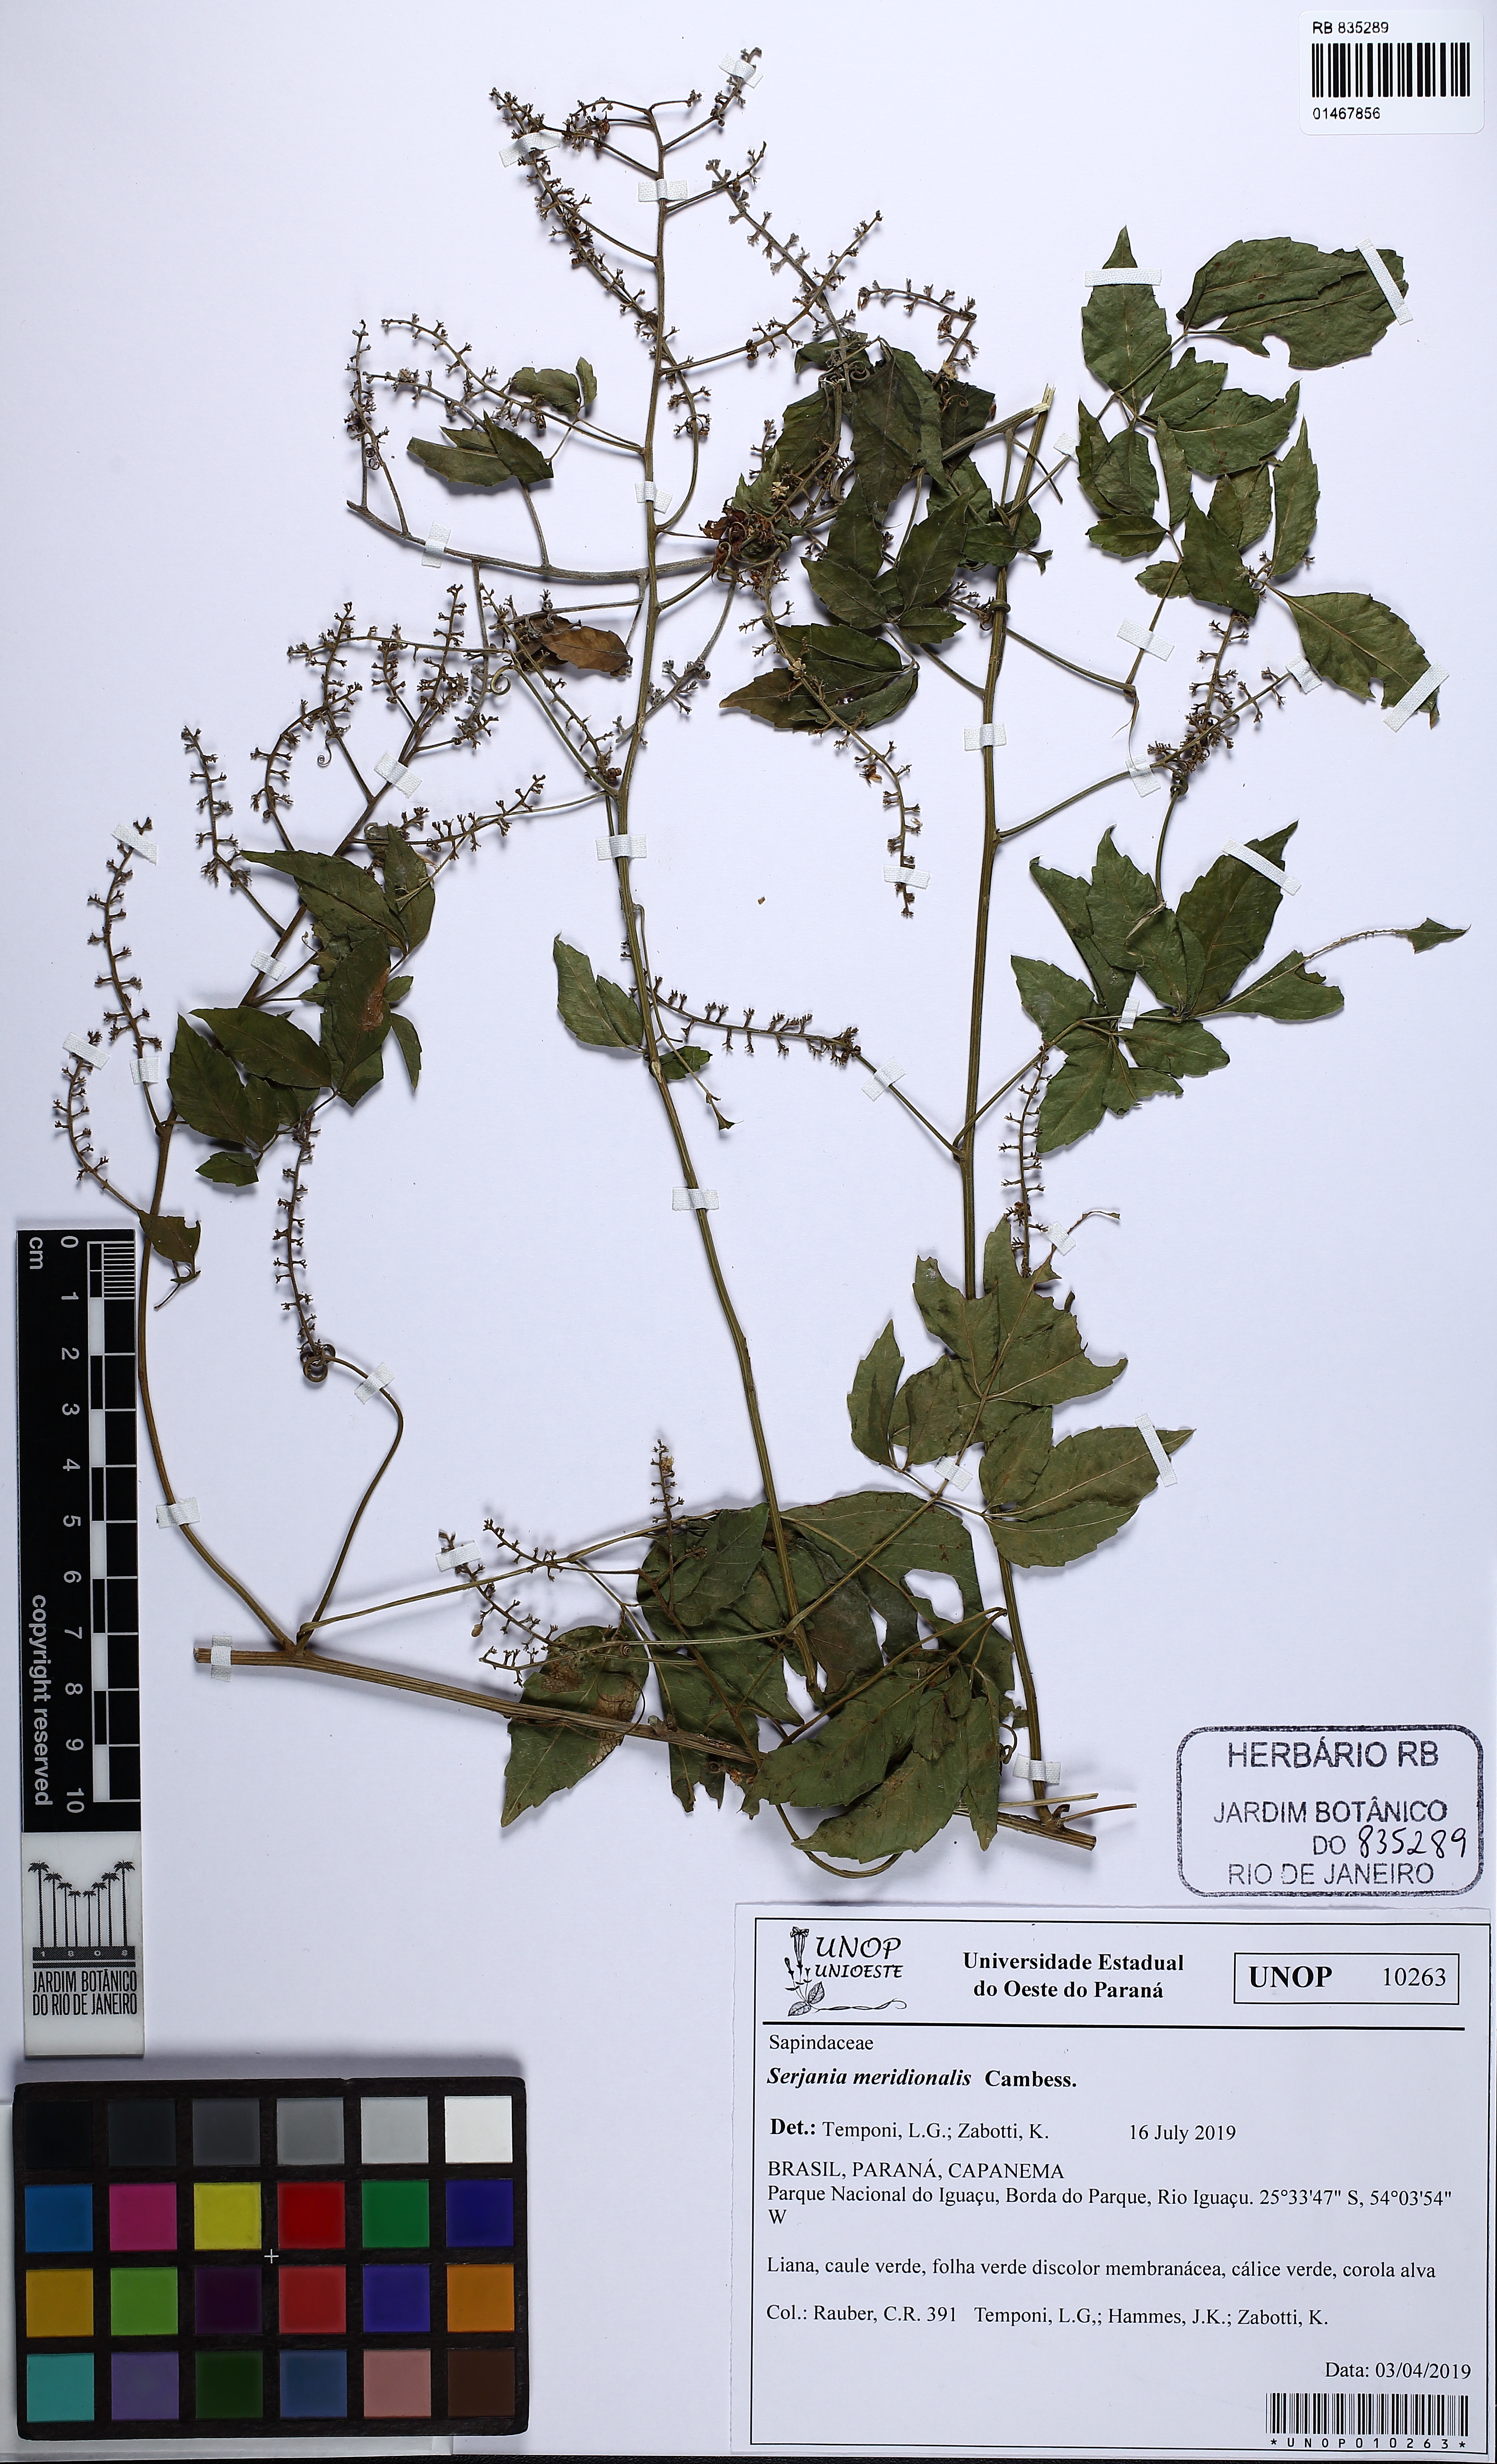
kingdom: Plantae
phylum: Tracheophyta
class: Magnoliopsida
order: Sapindales
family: Sapindaceae
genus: Serjania
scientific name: Serjania meridionalis
